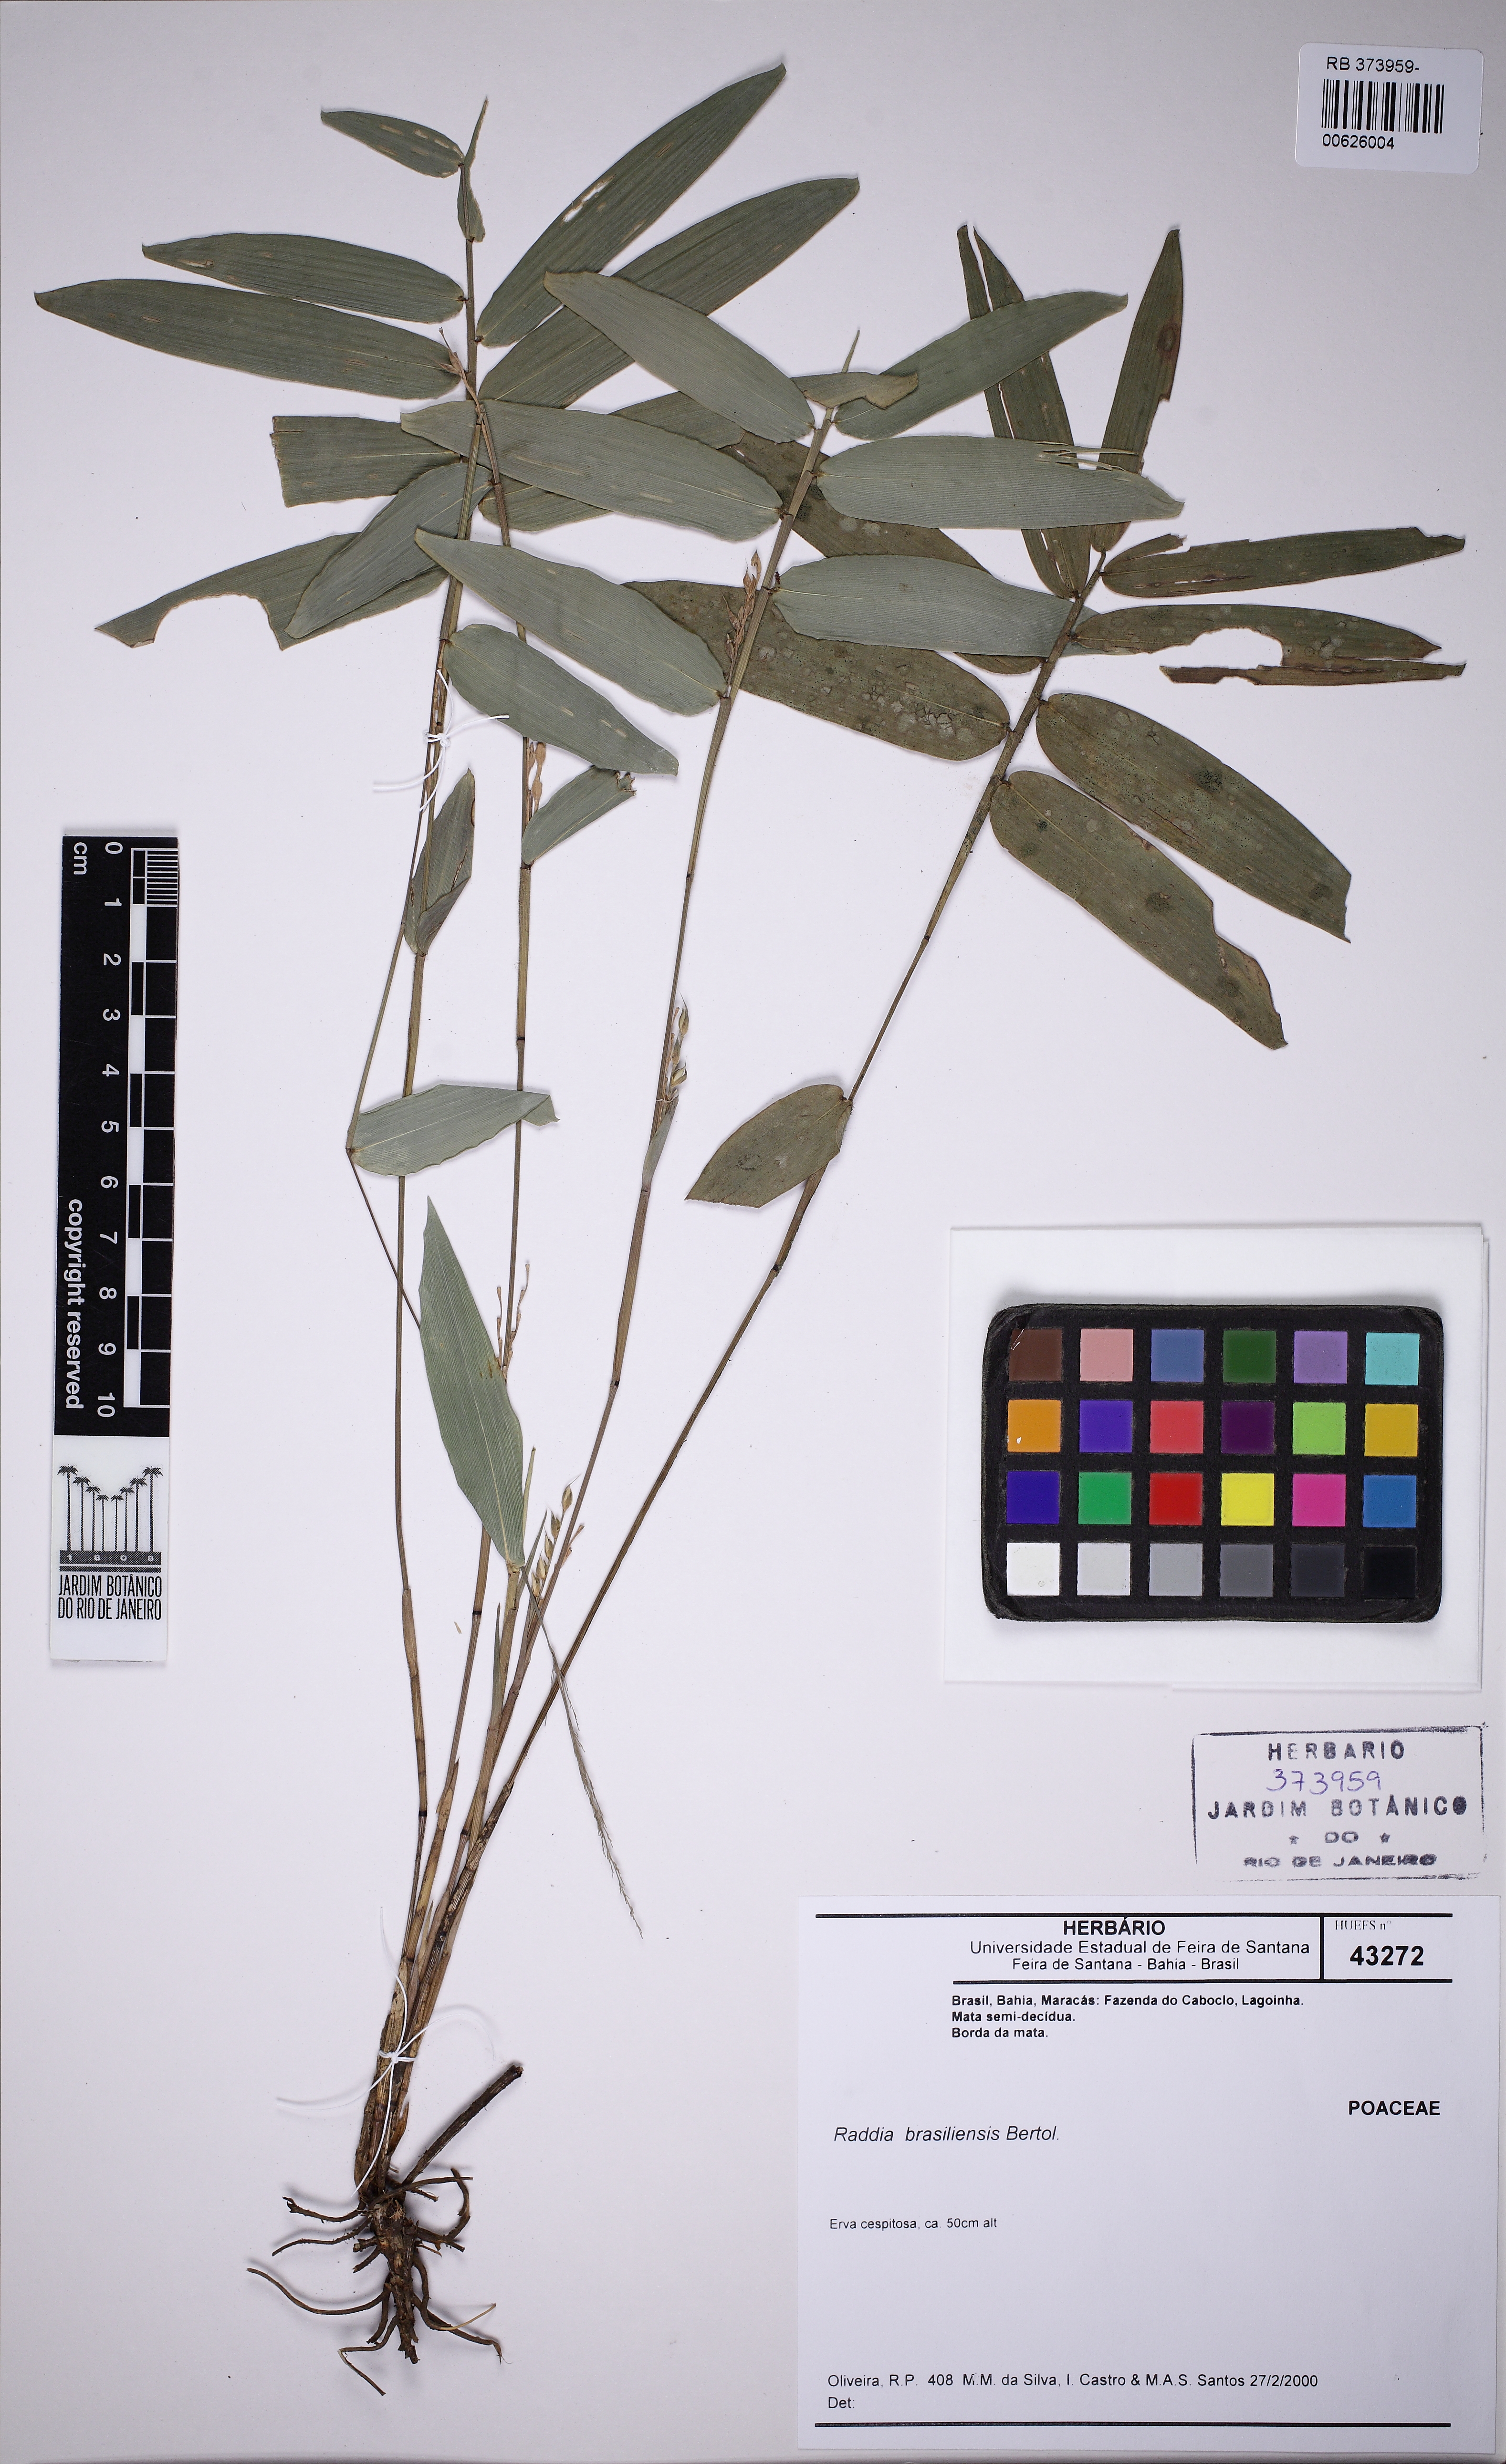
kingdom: Plantae
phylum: Tracheophyta
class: Liliopsida
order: Poales
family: Poaceae
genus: Raddia
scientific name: Raddia brasiliensis
